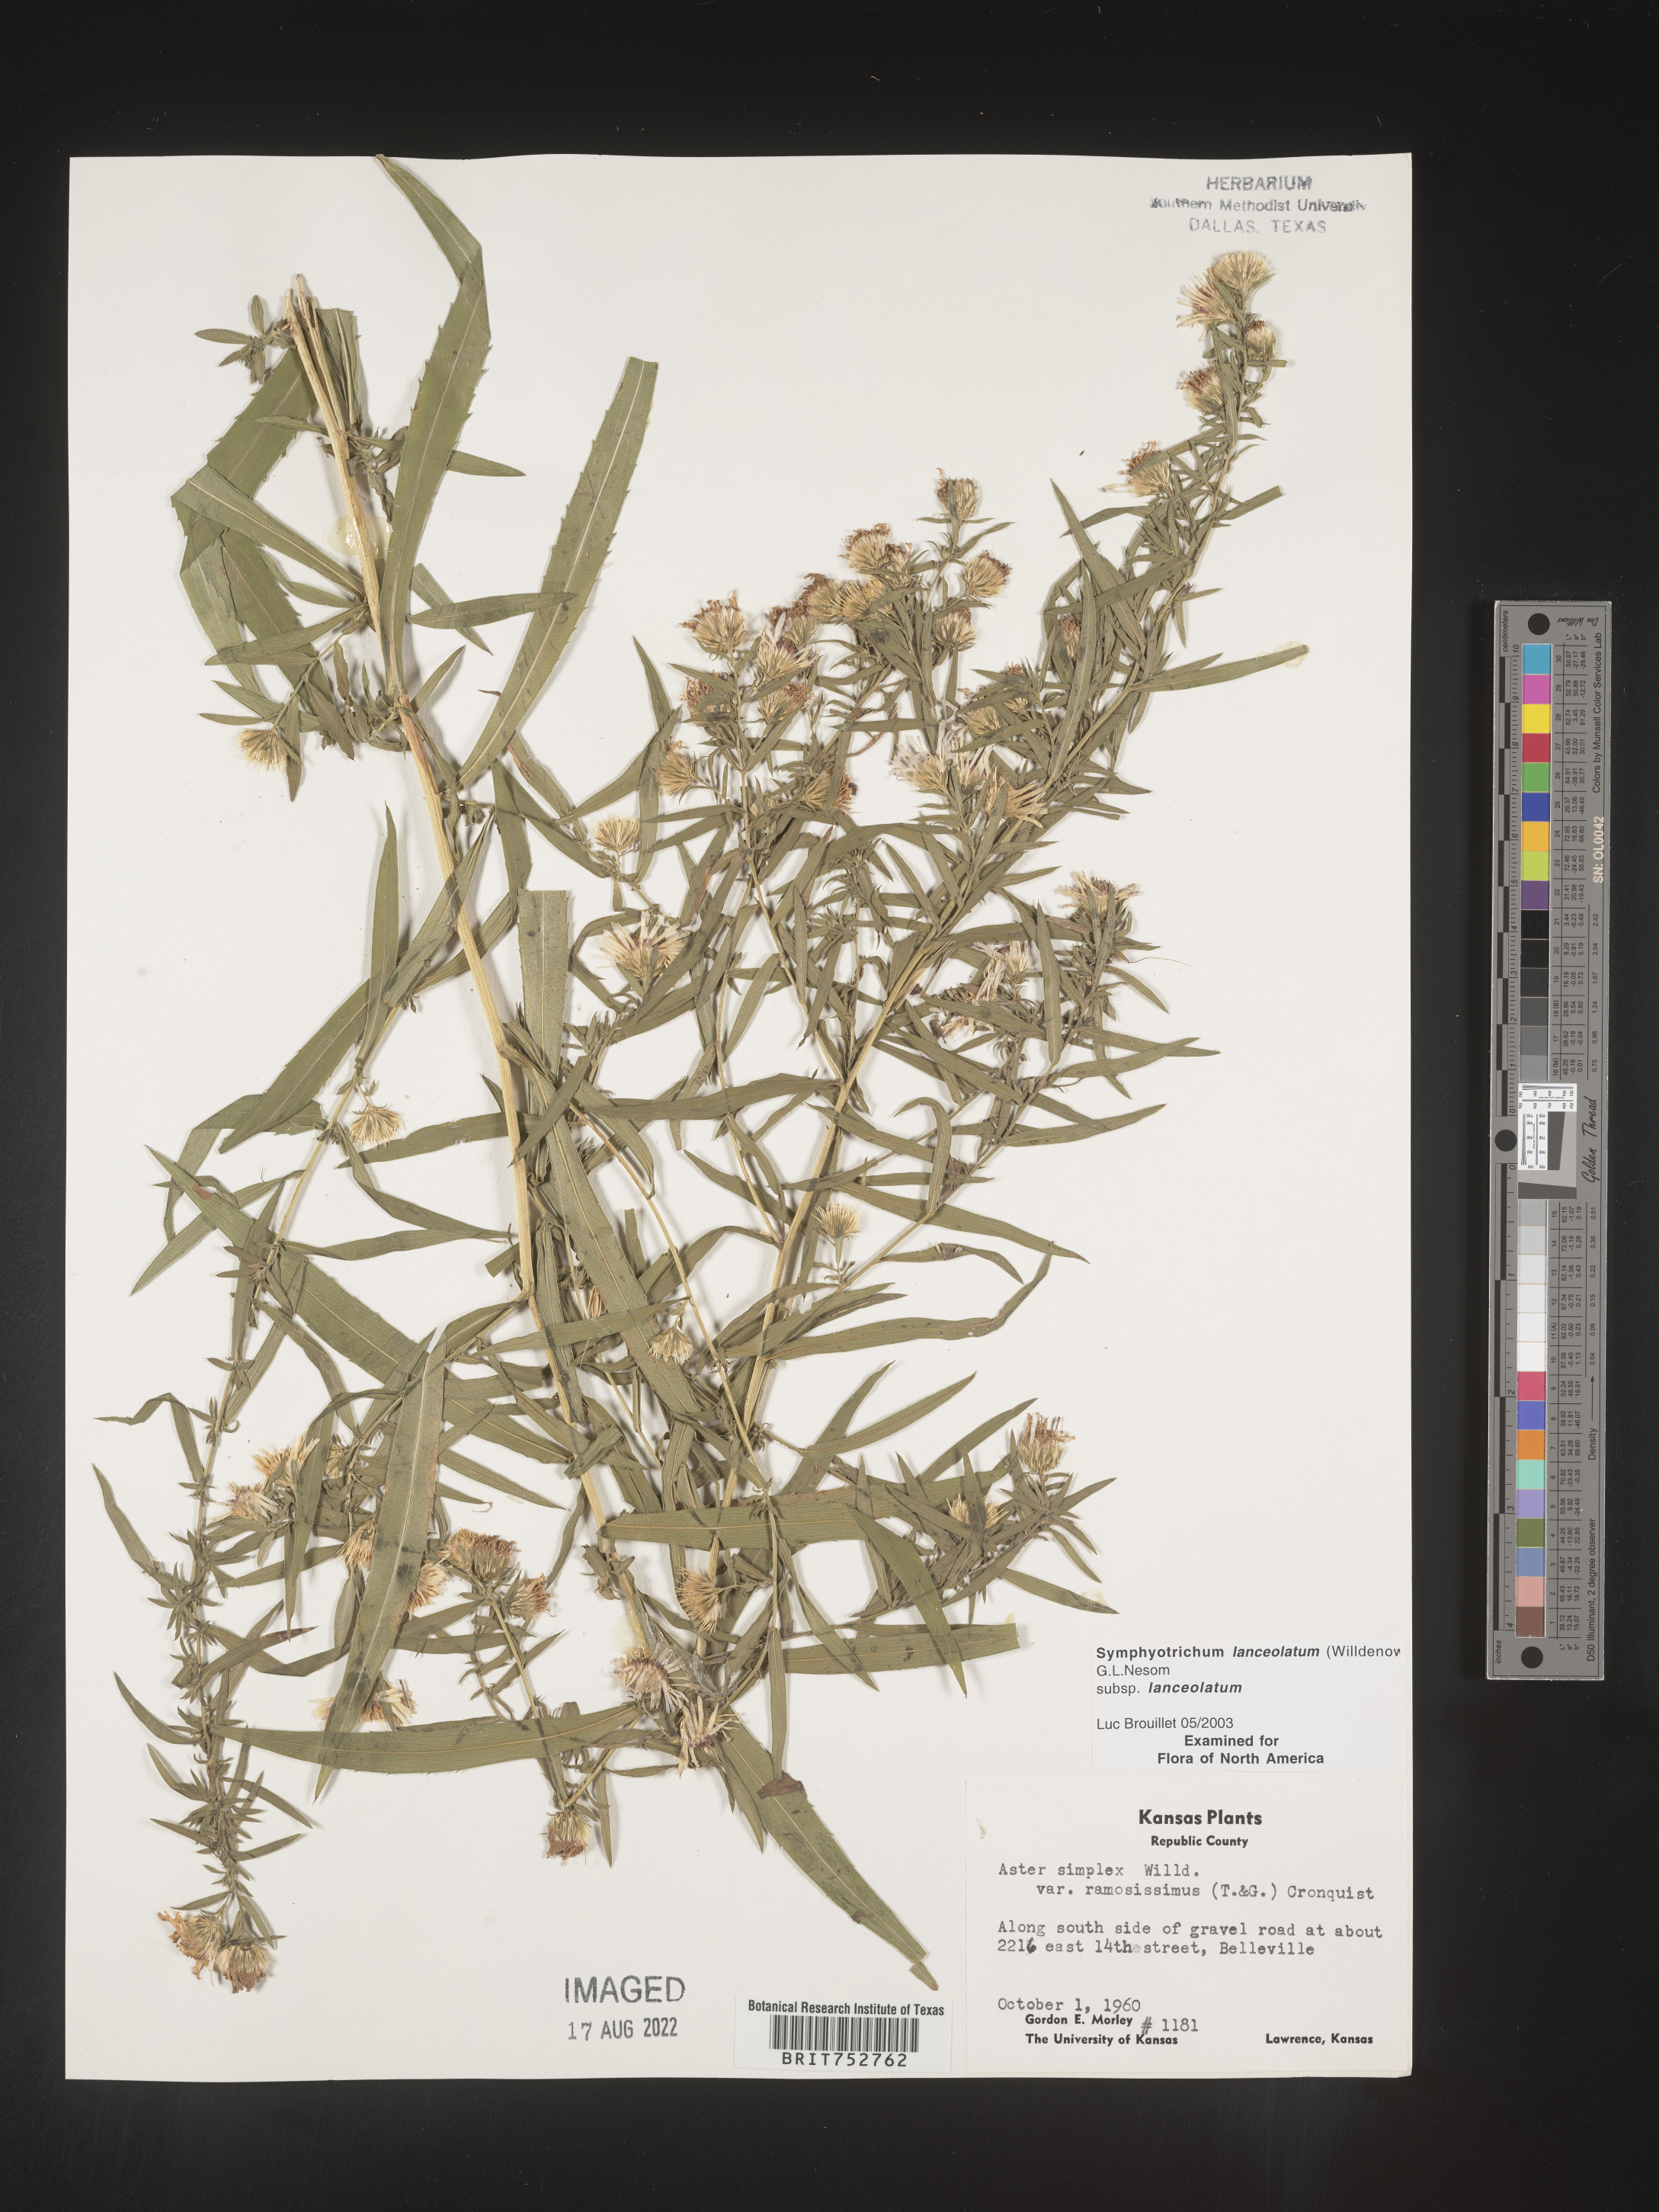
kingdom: Plantae
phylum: Tracheophyta
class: Magnoliopsida
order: Asterales
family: Asteraceae
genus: Symphyotrichum
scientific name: Symphyotrichum lanceolatum
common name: Panicled aster
